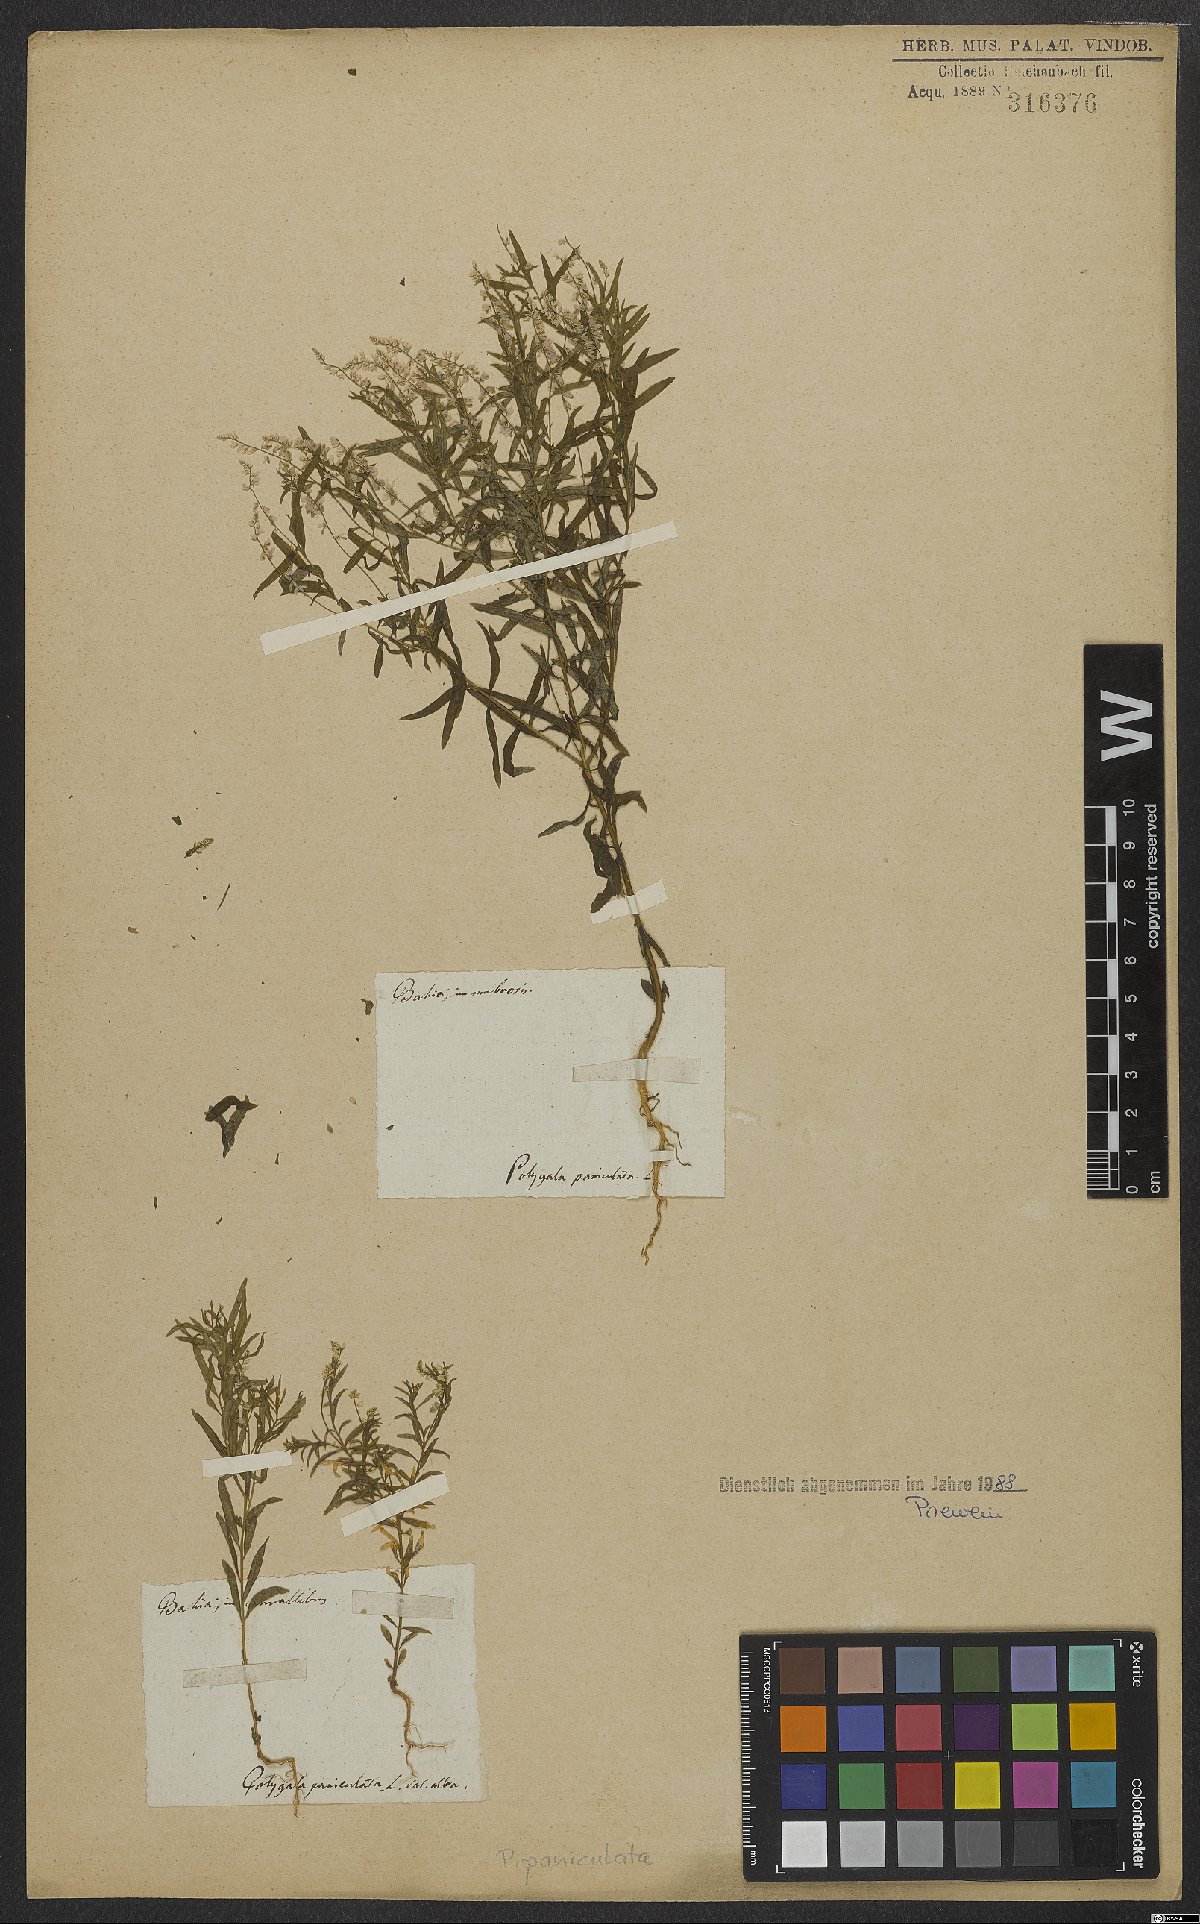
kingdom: Plantae
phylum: Tracheophyta
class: Magnoliopsida
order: Fabales
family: Polygalaceae
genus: Polygala
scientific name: Polygala exilis
